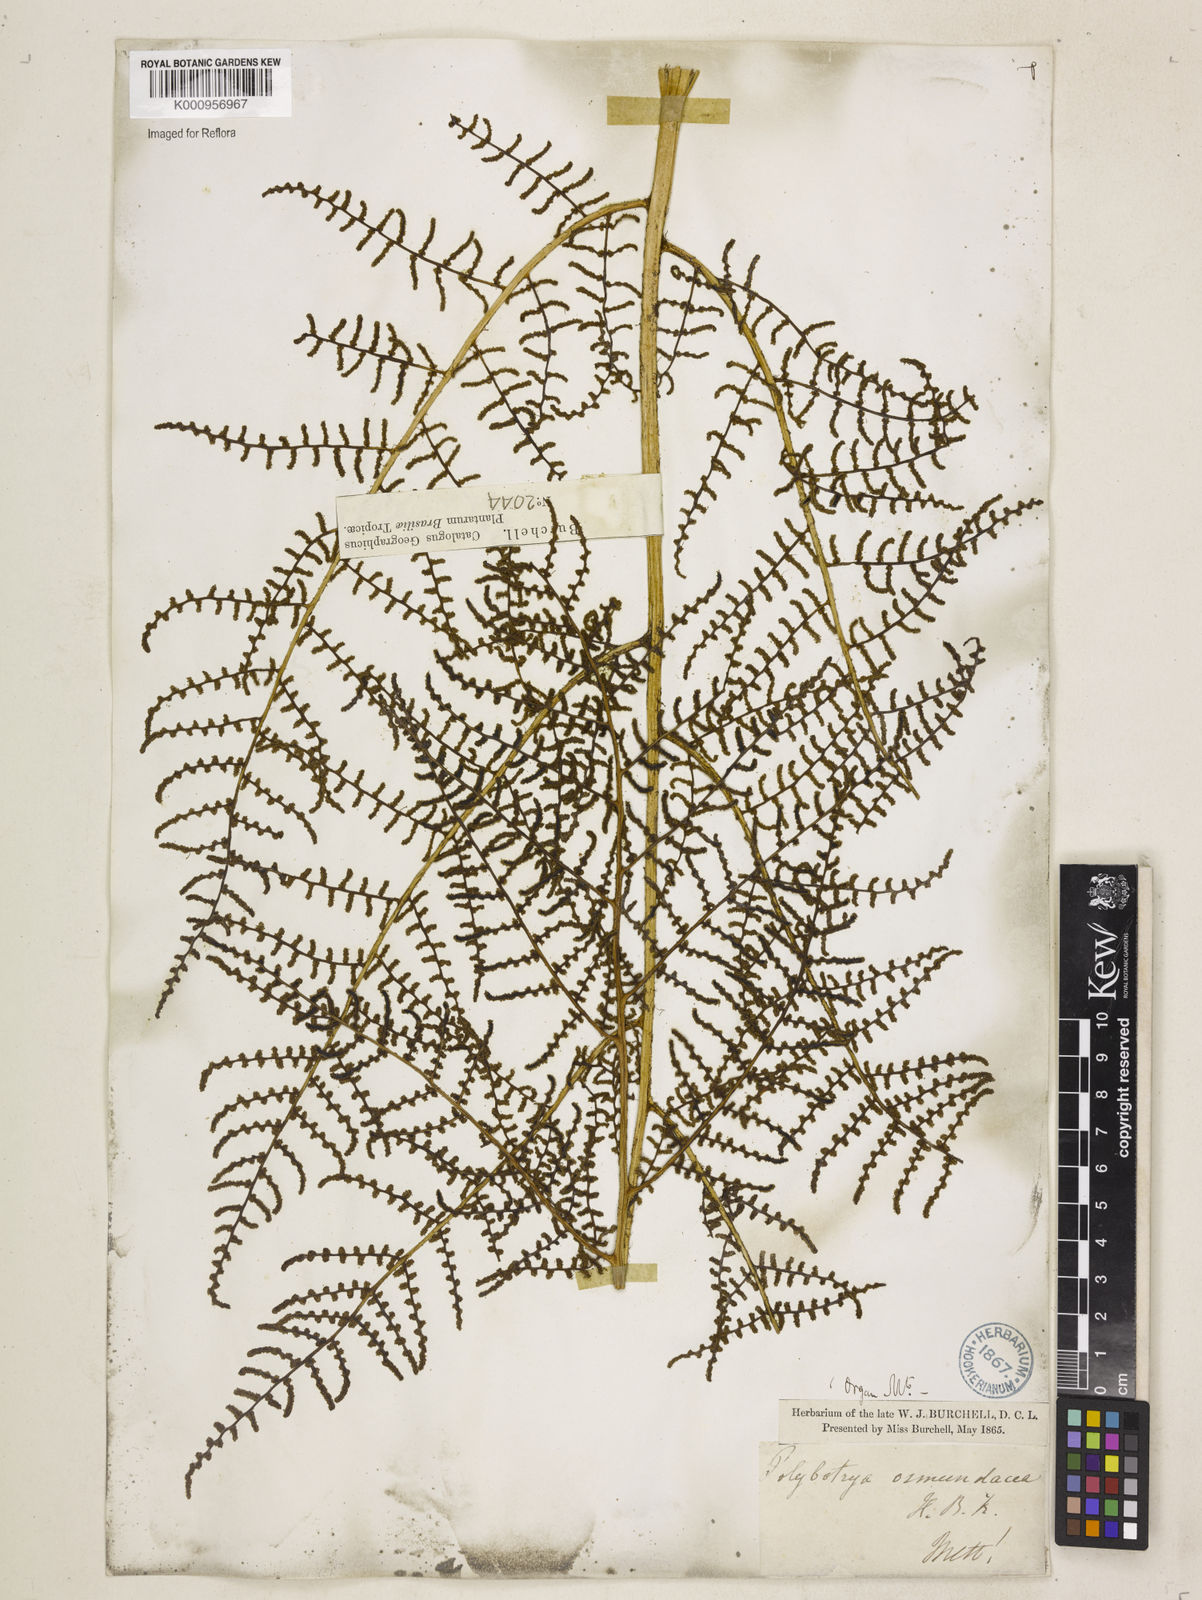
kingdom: Plantae
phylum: Tracheophyta
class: Polypodiopsida
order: Polypodiales
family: Dryopteridaceae
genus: Polybotrya
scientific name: Polybotrya osmundacea
